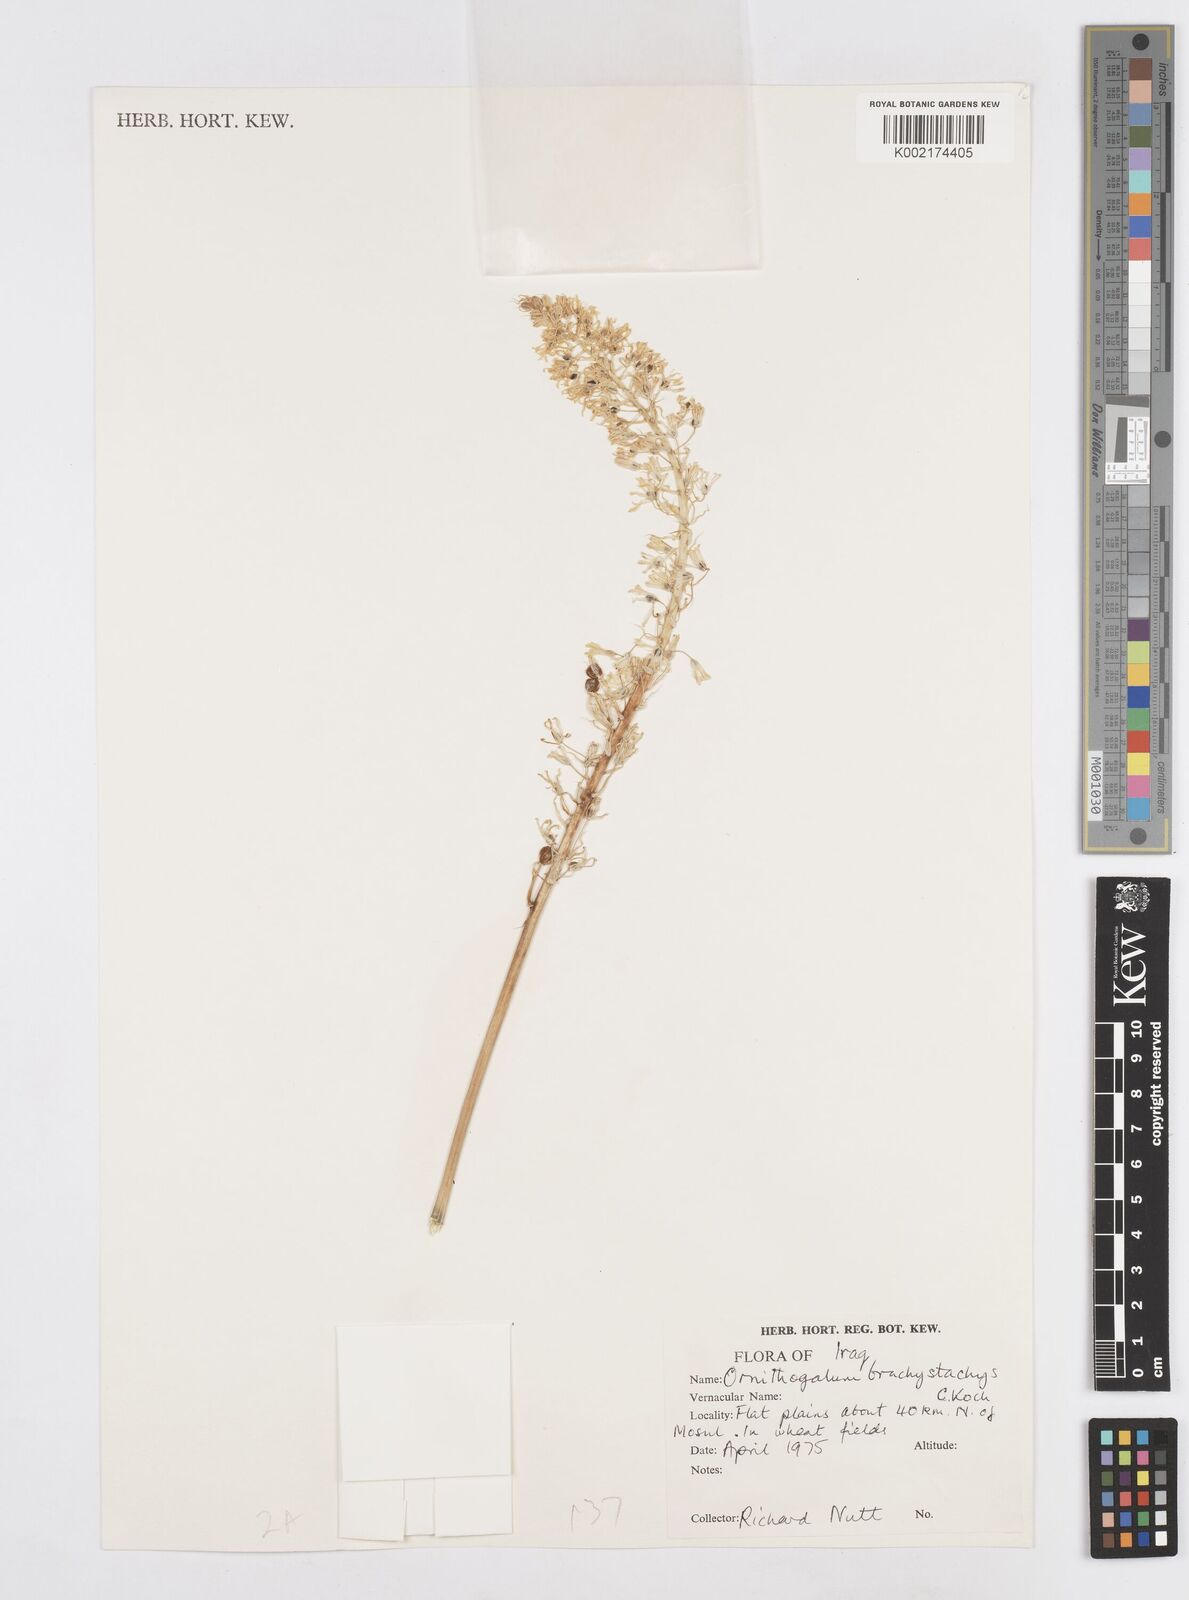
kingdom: Plantae
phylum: Tracheophyta
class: Liliopsida
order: Asparagales
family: Asparagaceae
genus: Ornithogalum
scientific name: Ornithogalum narbonense
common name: Bath-asparagus
